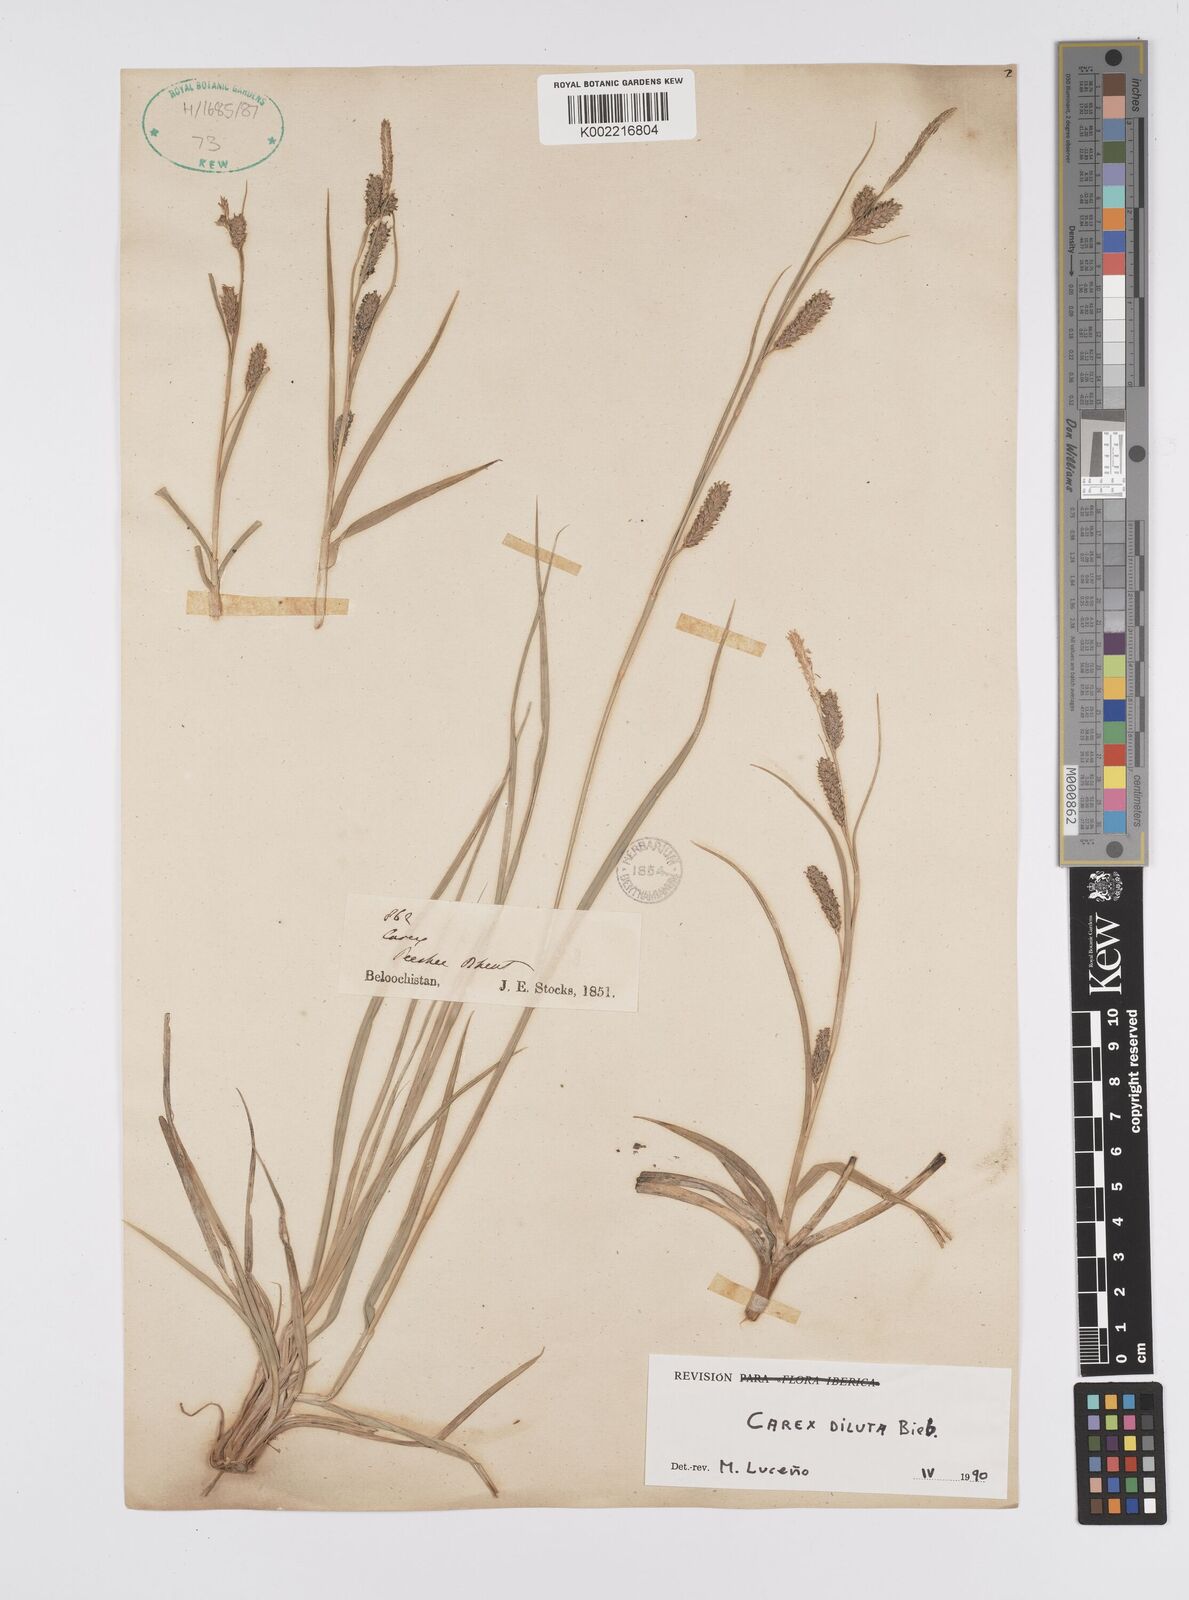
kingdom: Plantae
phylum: Tracheophyta
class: Liliopsida
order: Poales
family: Cyperaceae
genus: Carex
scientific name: Carex diluta
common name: Sedge
